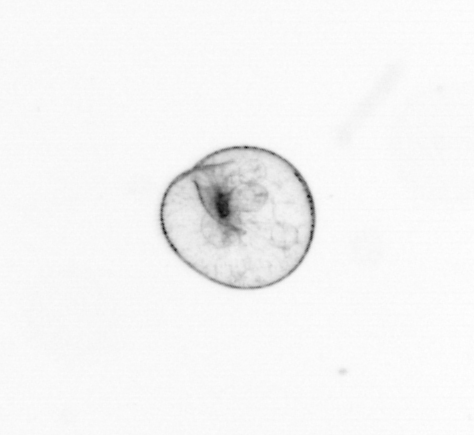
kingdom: Chromista
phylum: Myzozoa
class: Dinophyceae
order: Noctilucales
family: Noctilucaceae
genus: Noctiluca
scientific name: Noctiluca scintillans
